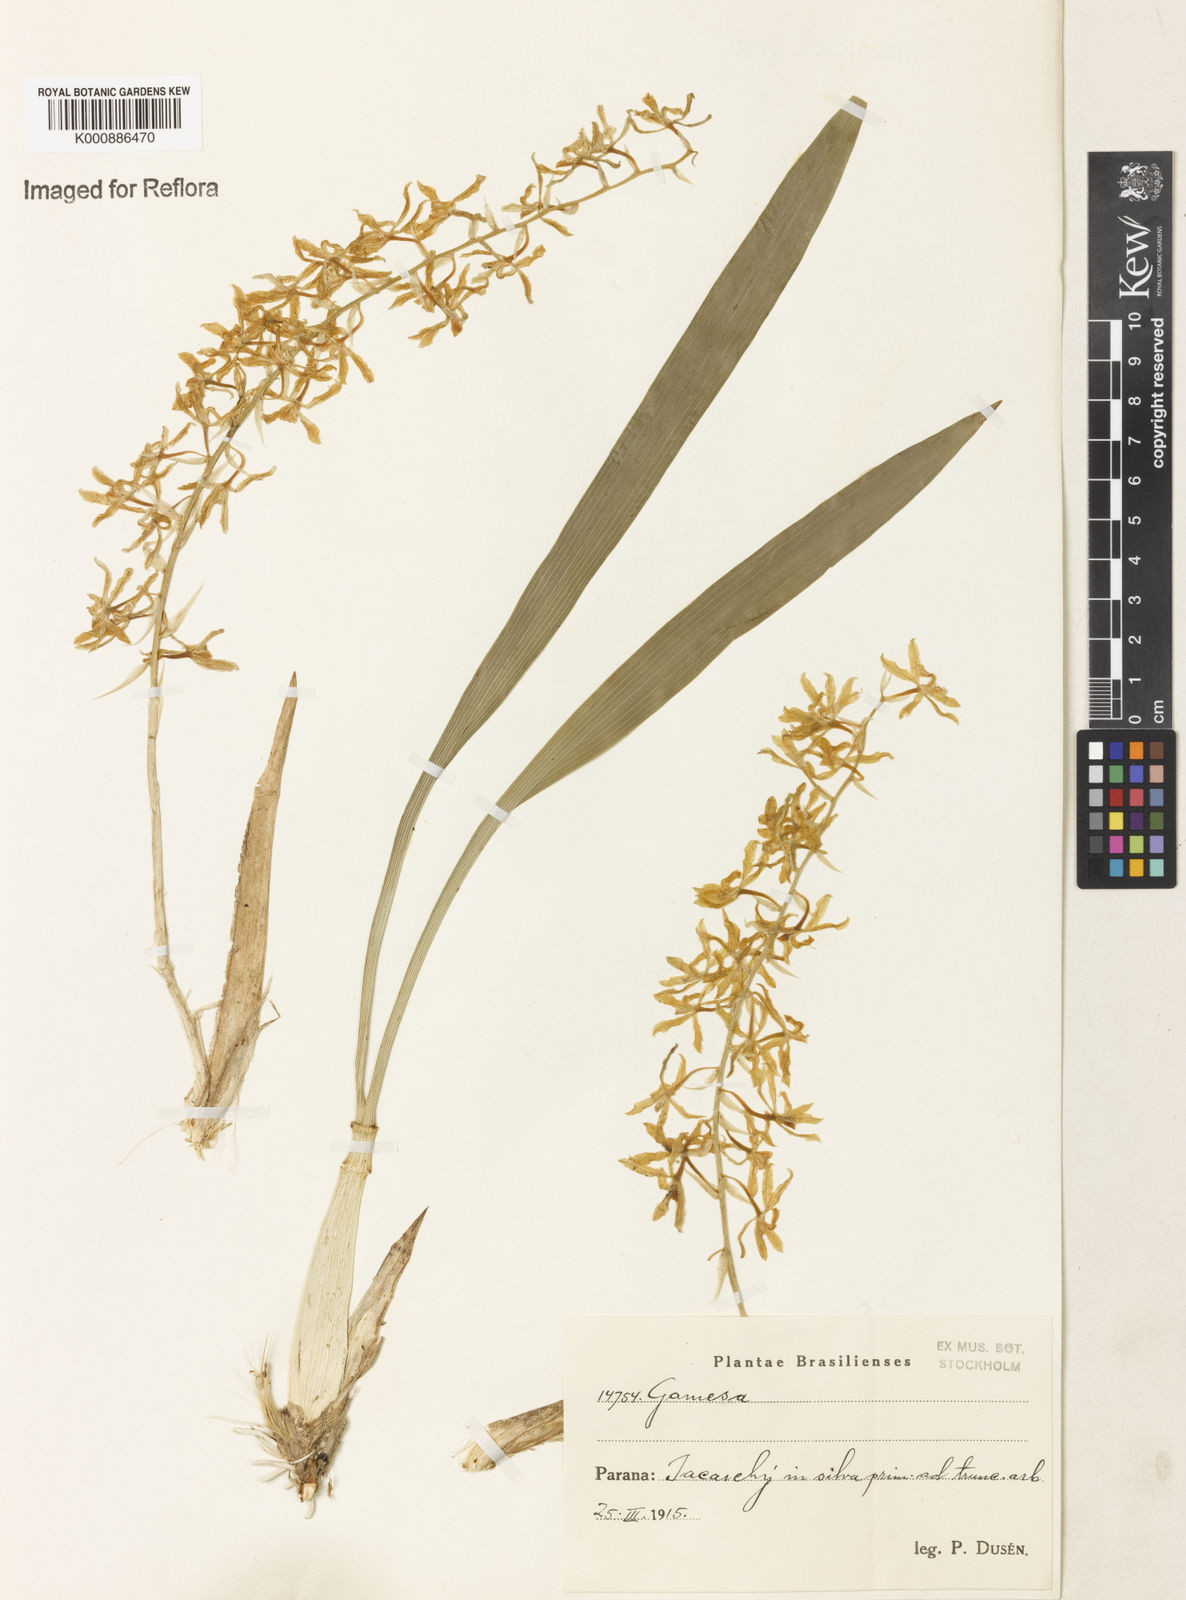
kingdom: Plantae
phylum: Tracheophyta
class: Liliopsida
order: Asparagales
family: Orchidaceae
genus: Gomesa
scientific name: Gomesa crispa
